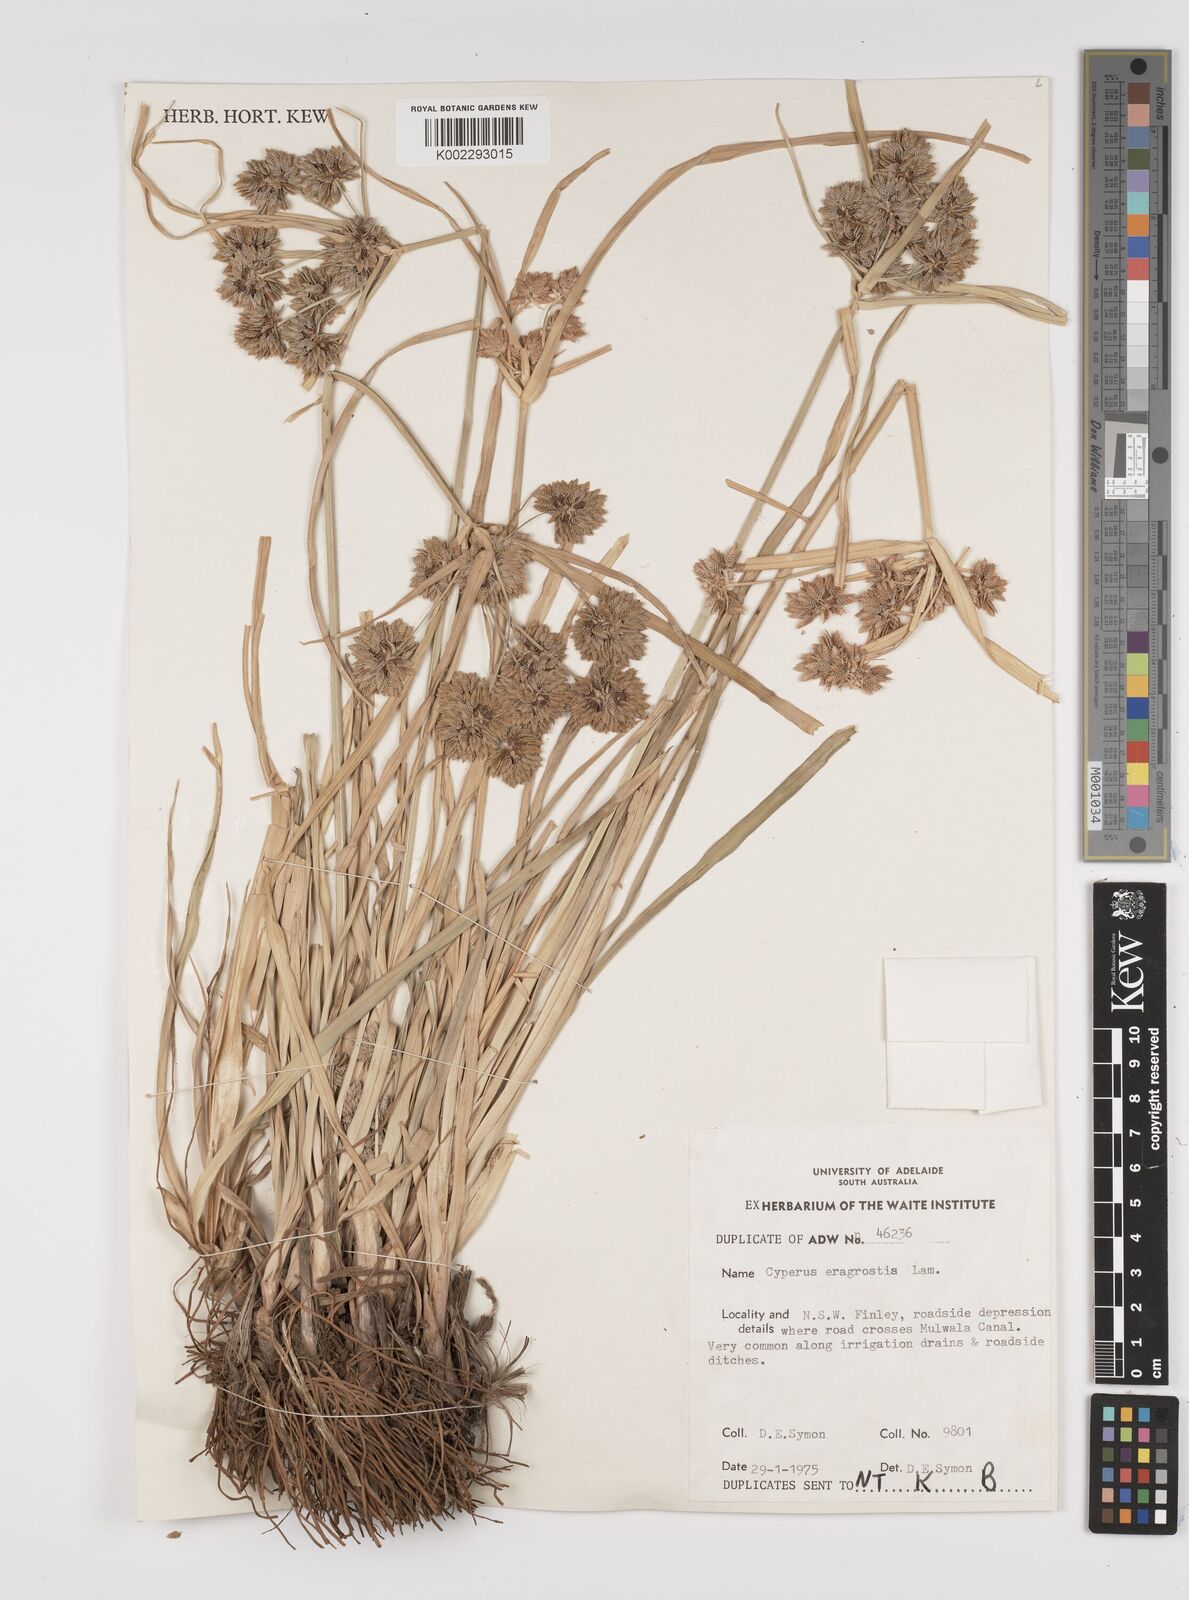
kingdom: Plantae
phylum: Tracheophyta
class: Liliopsida
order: Poales
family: Cyperaceae
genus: Cyperus
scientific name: Cyperus eragrostis
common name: Tall flatsedge
